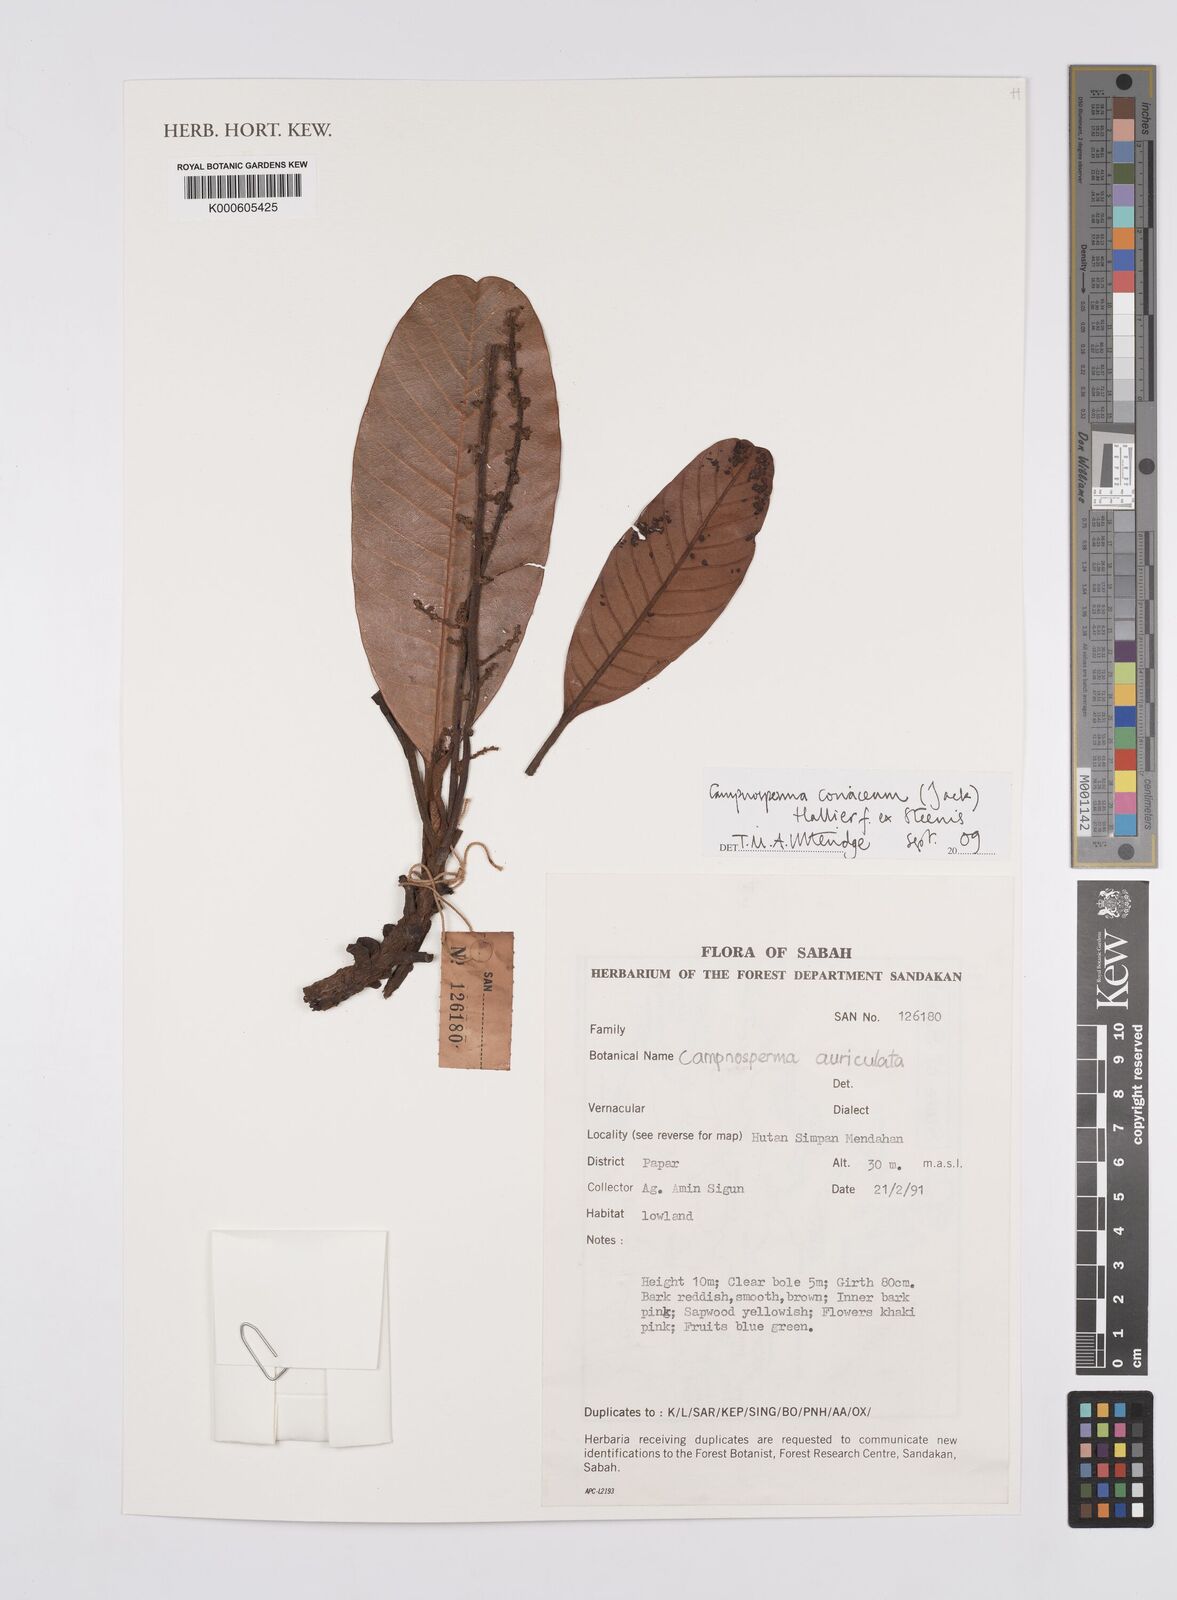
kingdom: Plantae
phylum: Tracheophyta
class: Magnoliopsida
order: Sapindales
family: Anacardiaceae
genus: Campnosperma
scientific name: Campnosperma
